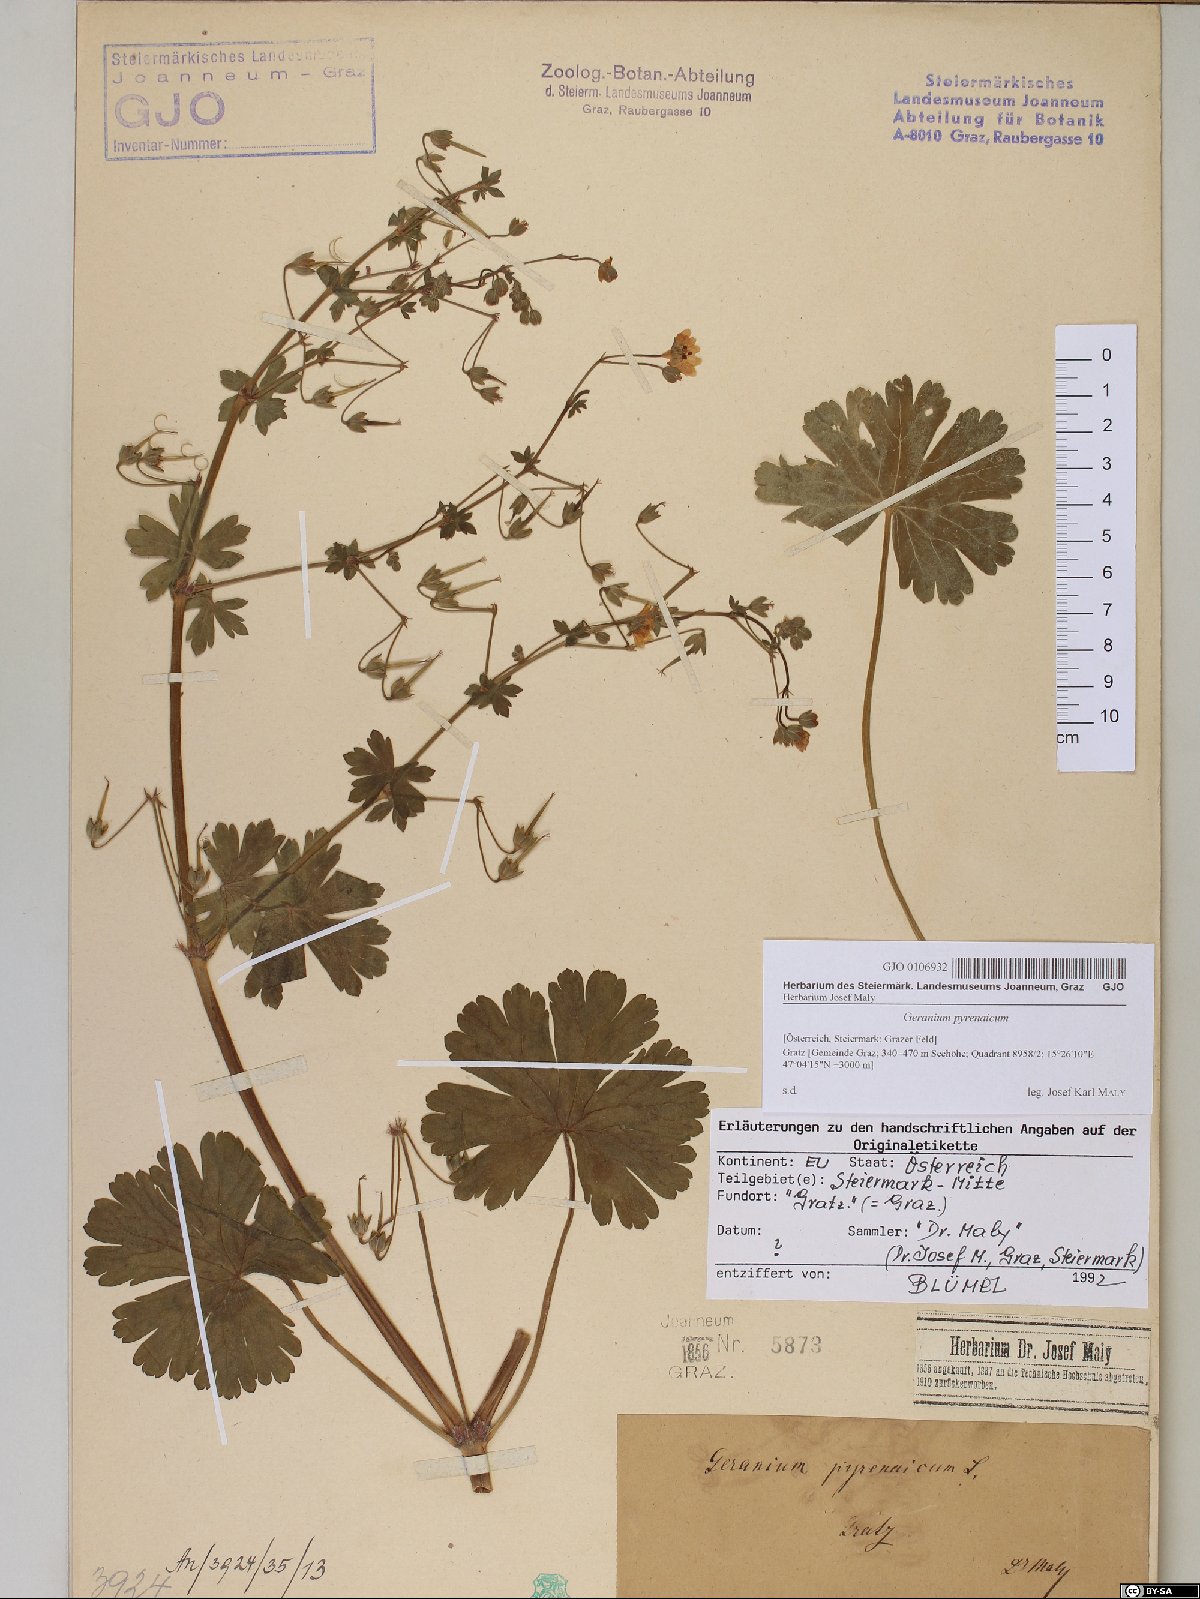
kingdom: Plantae
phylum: Tracheophyta
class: Magnoliopsida
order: Geraniales
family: Geraniaceae
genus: Geranium
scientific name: Geranium pyrenaicum
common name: Hedgerow crane's-bill
